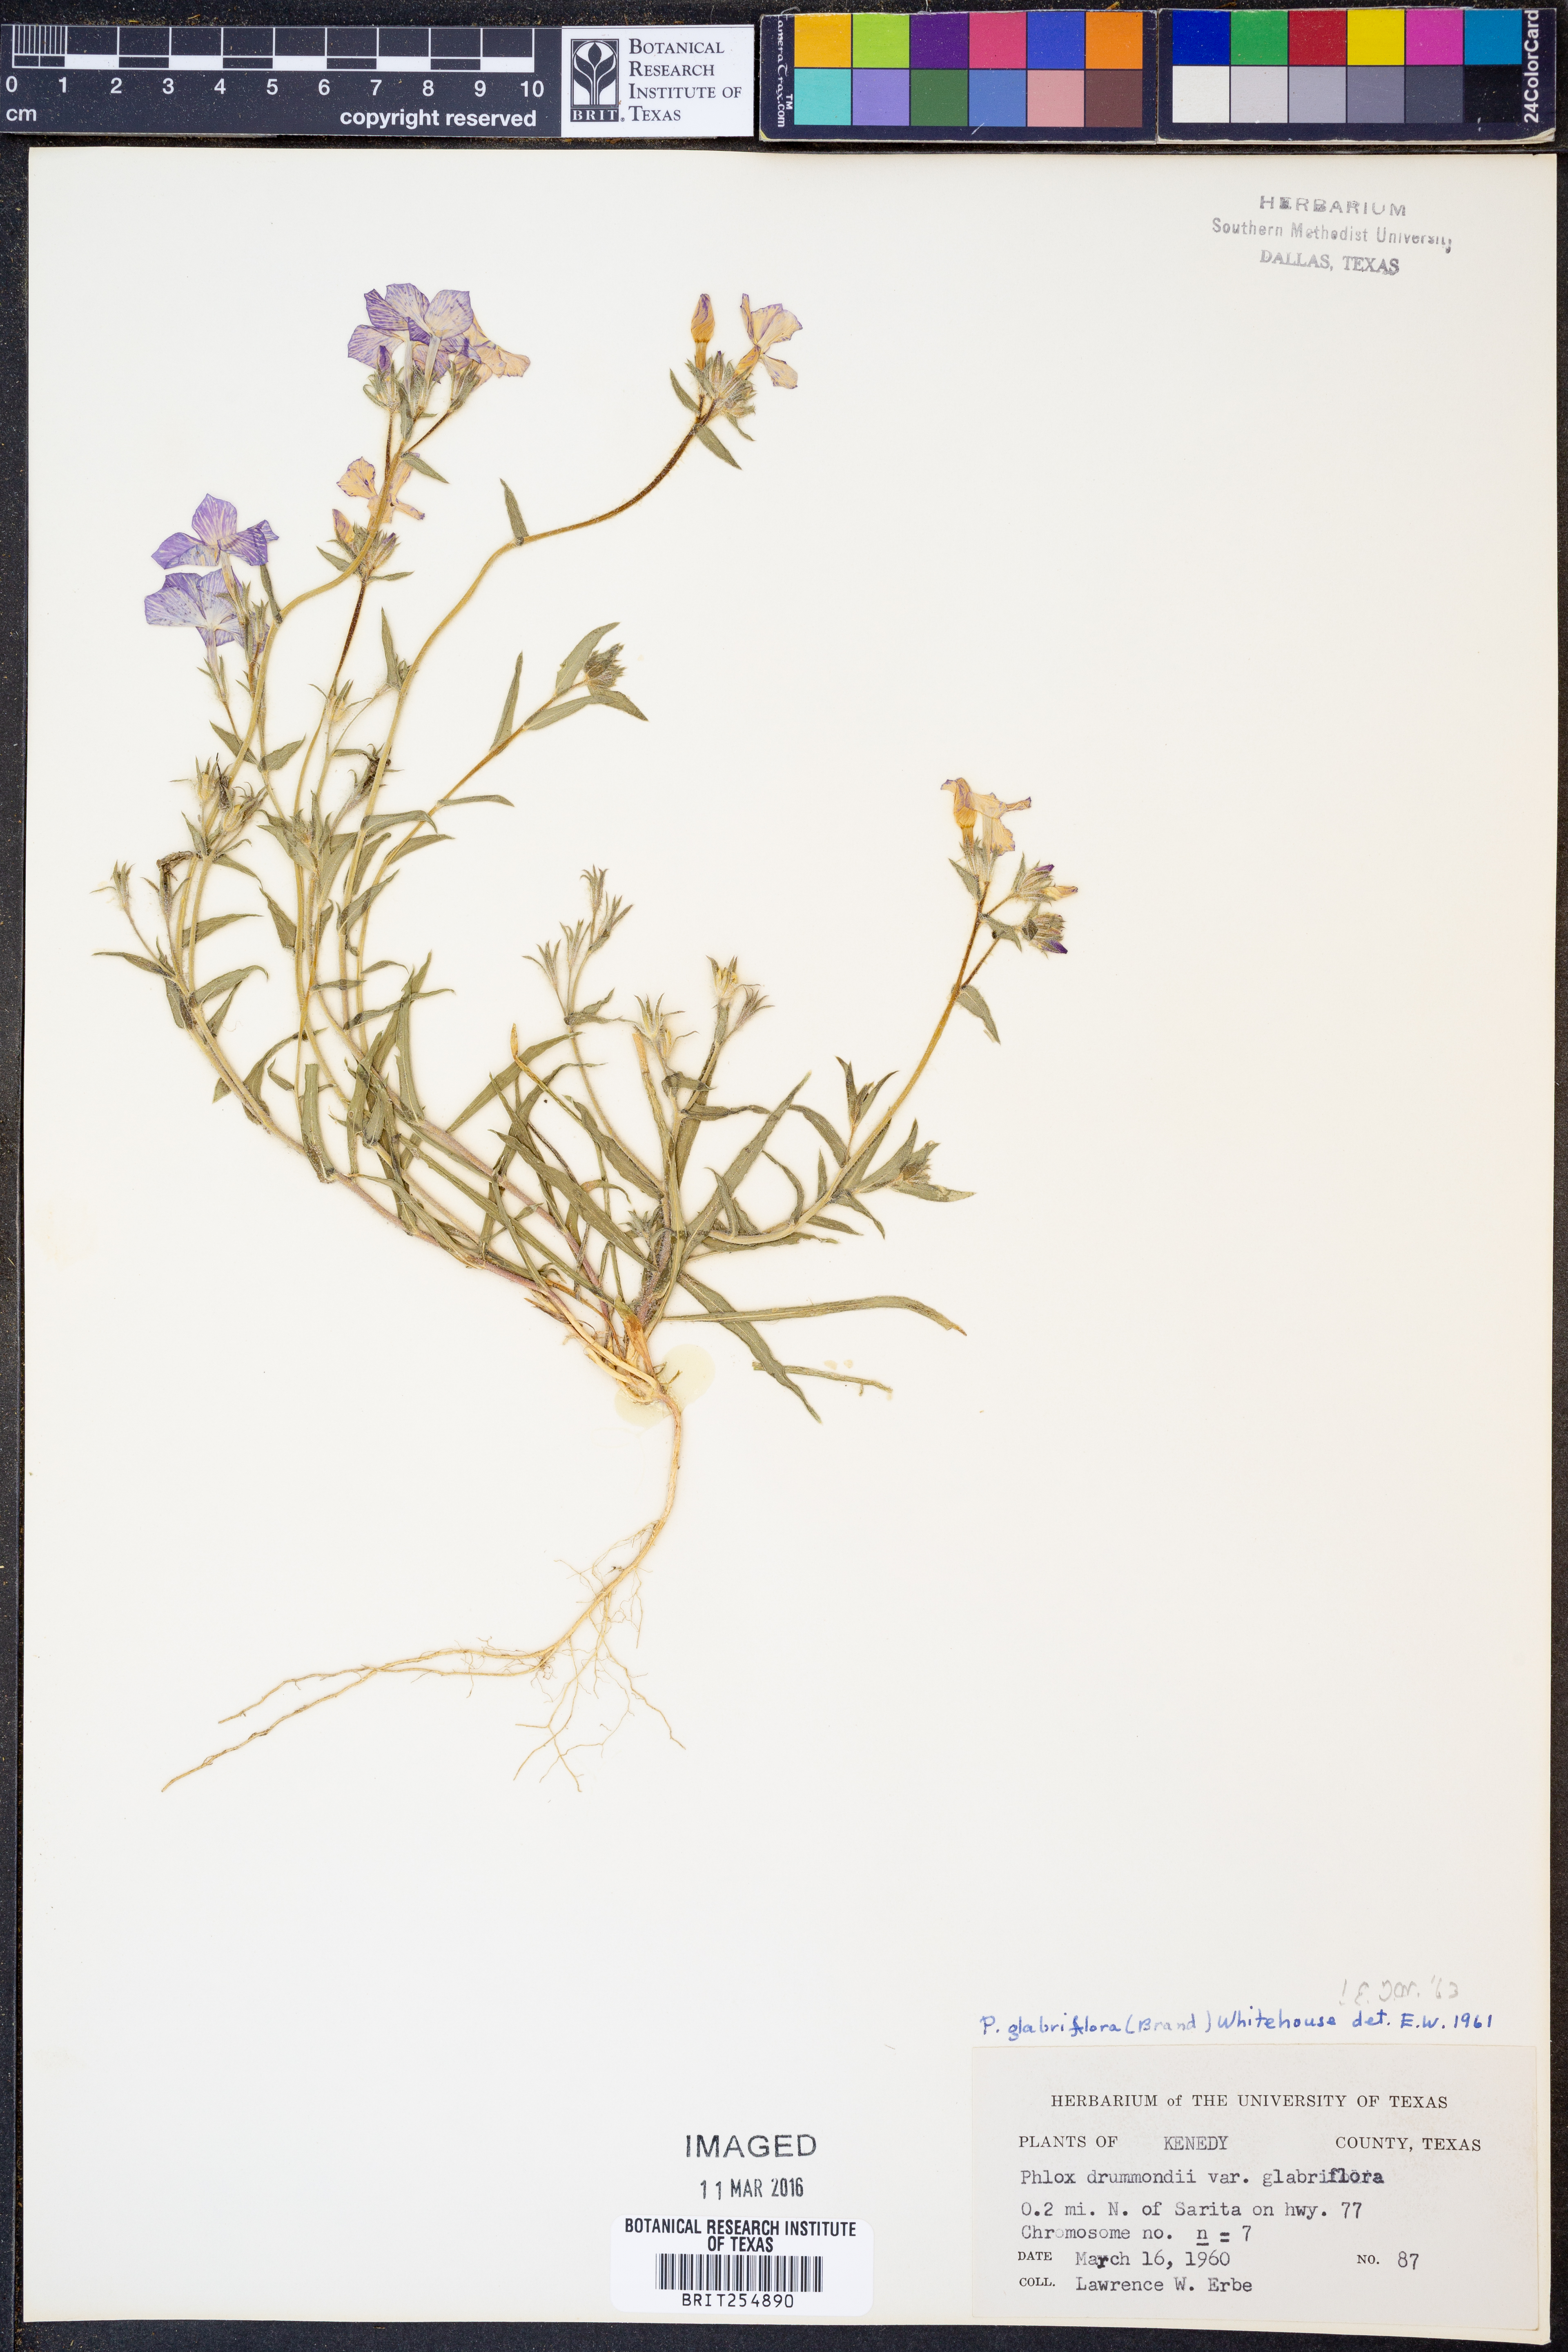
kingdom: Plantae
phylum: Tracheophyta
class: Magnoliopsida
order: Ericales
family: Polemoniaceae
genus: Phlox
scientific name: Phlox glabriflora
